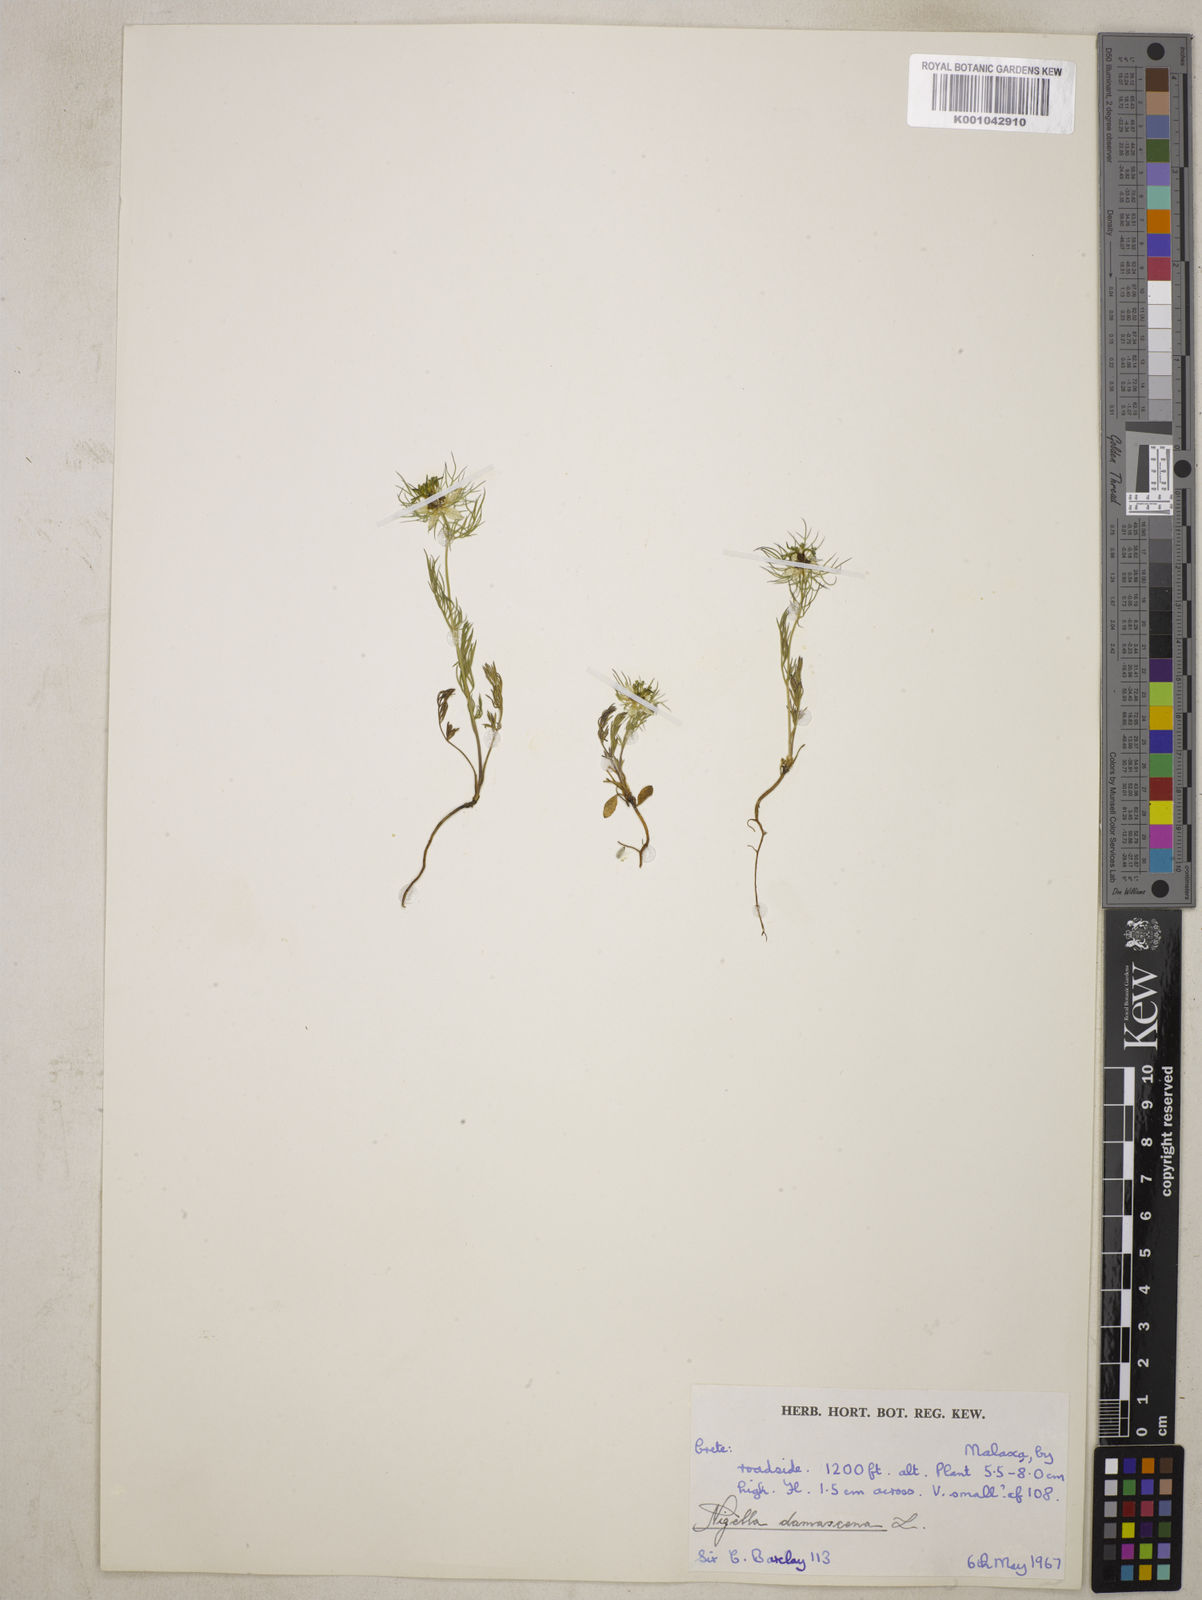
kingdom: Plantae
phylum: Tracheophyta
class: Magnoliopsida
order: Ranunculales
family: Ranunculaceae
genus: Nigella
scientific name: Nigella damascena
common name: Love-in-a-mist
